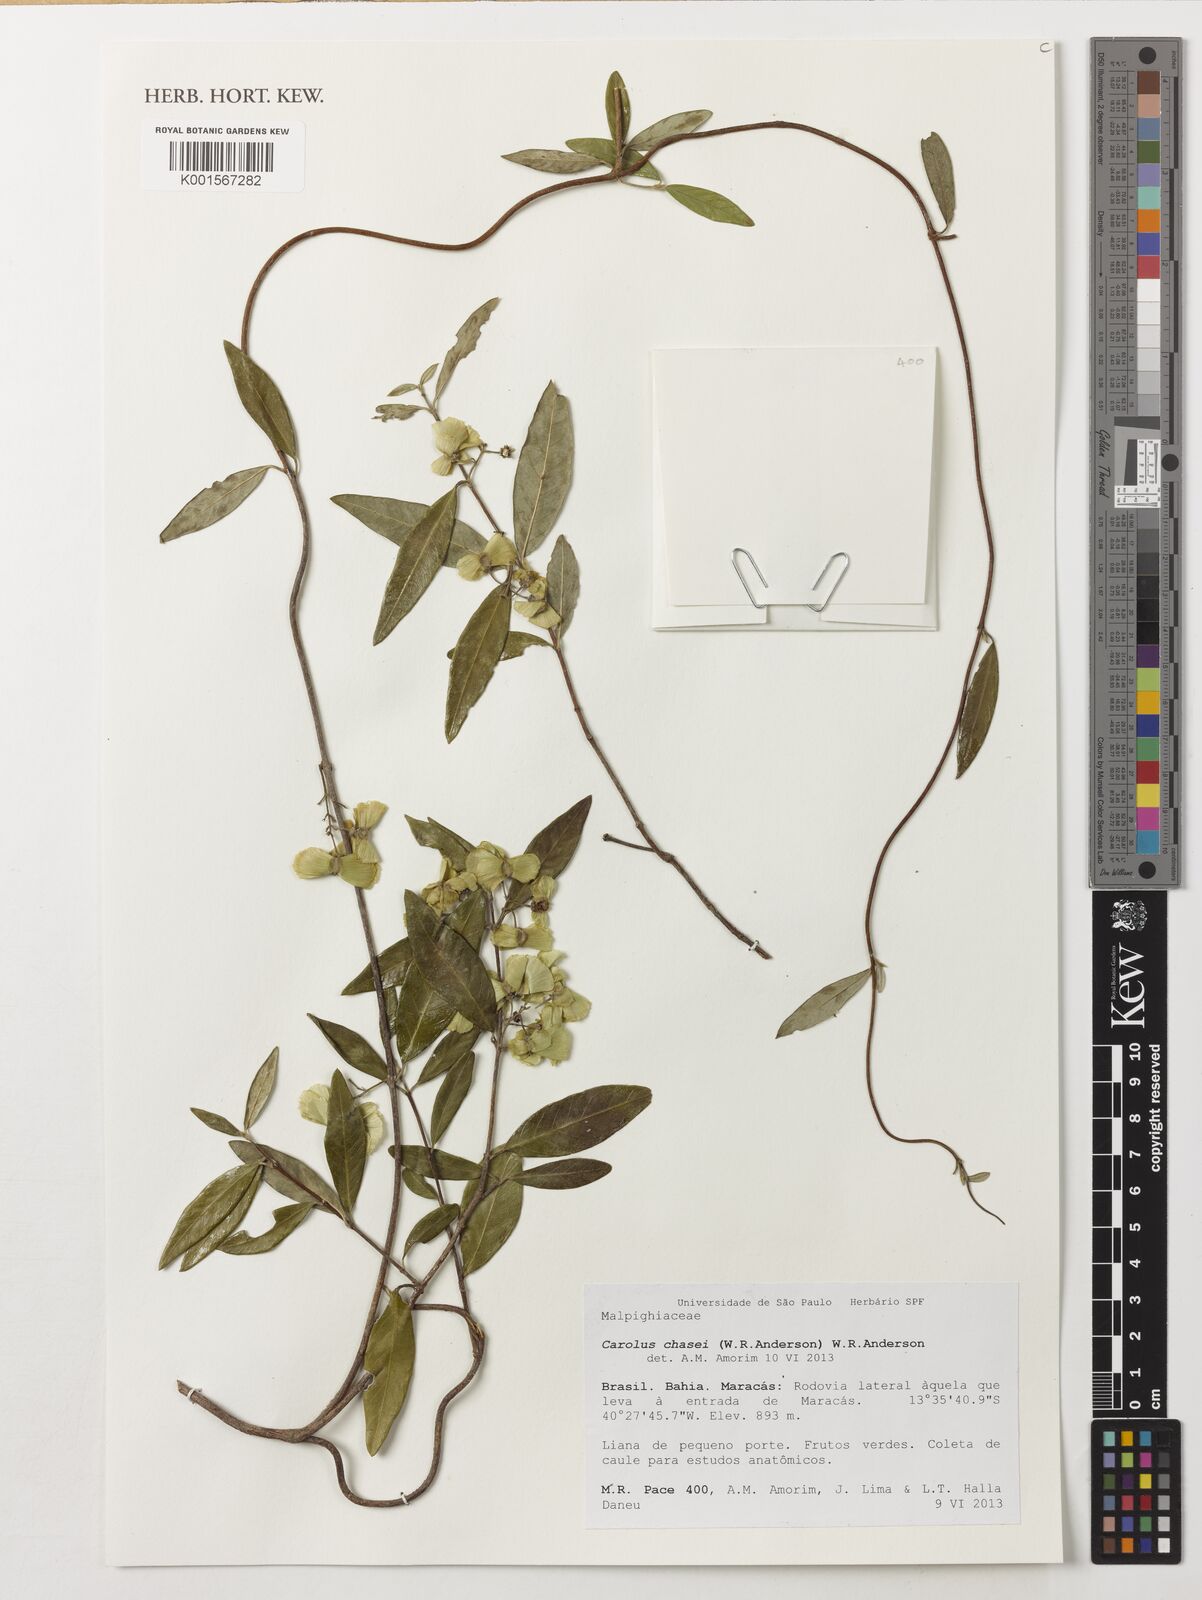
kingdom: Plantae
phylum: Tracheophyta
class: Magnoliopsida
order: Malpighiales
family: Malpighiaceae
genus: Carolus
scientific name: Carolus chasei
